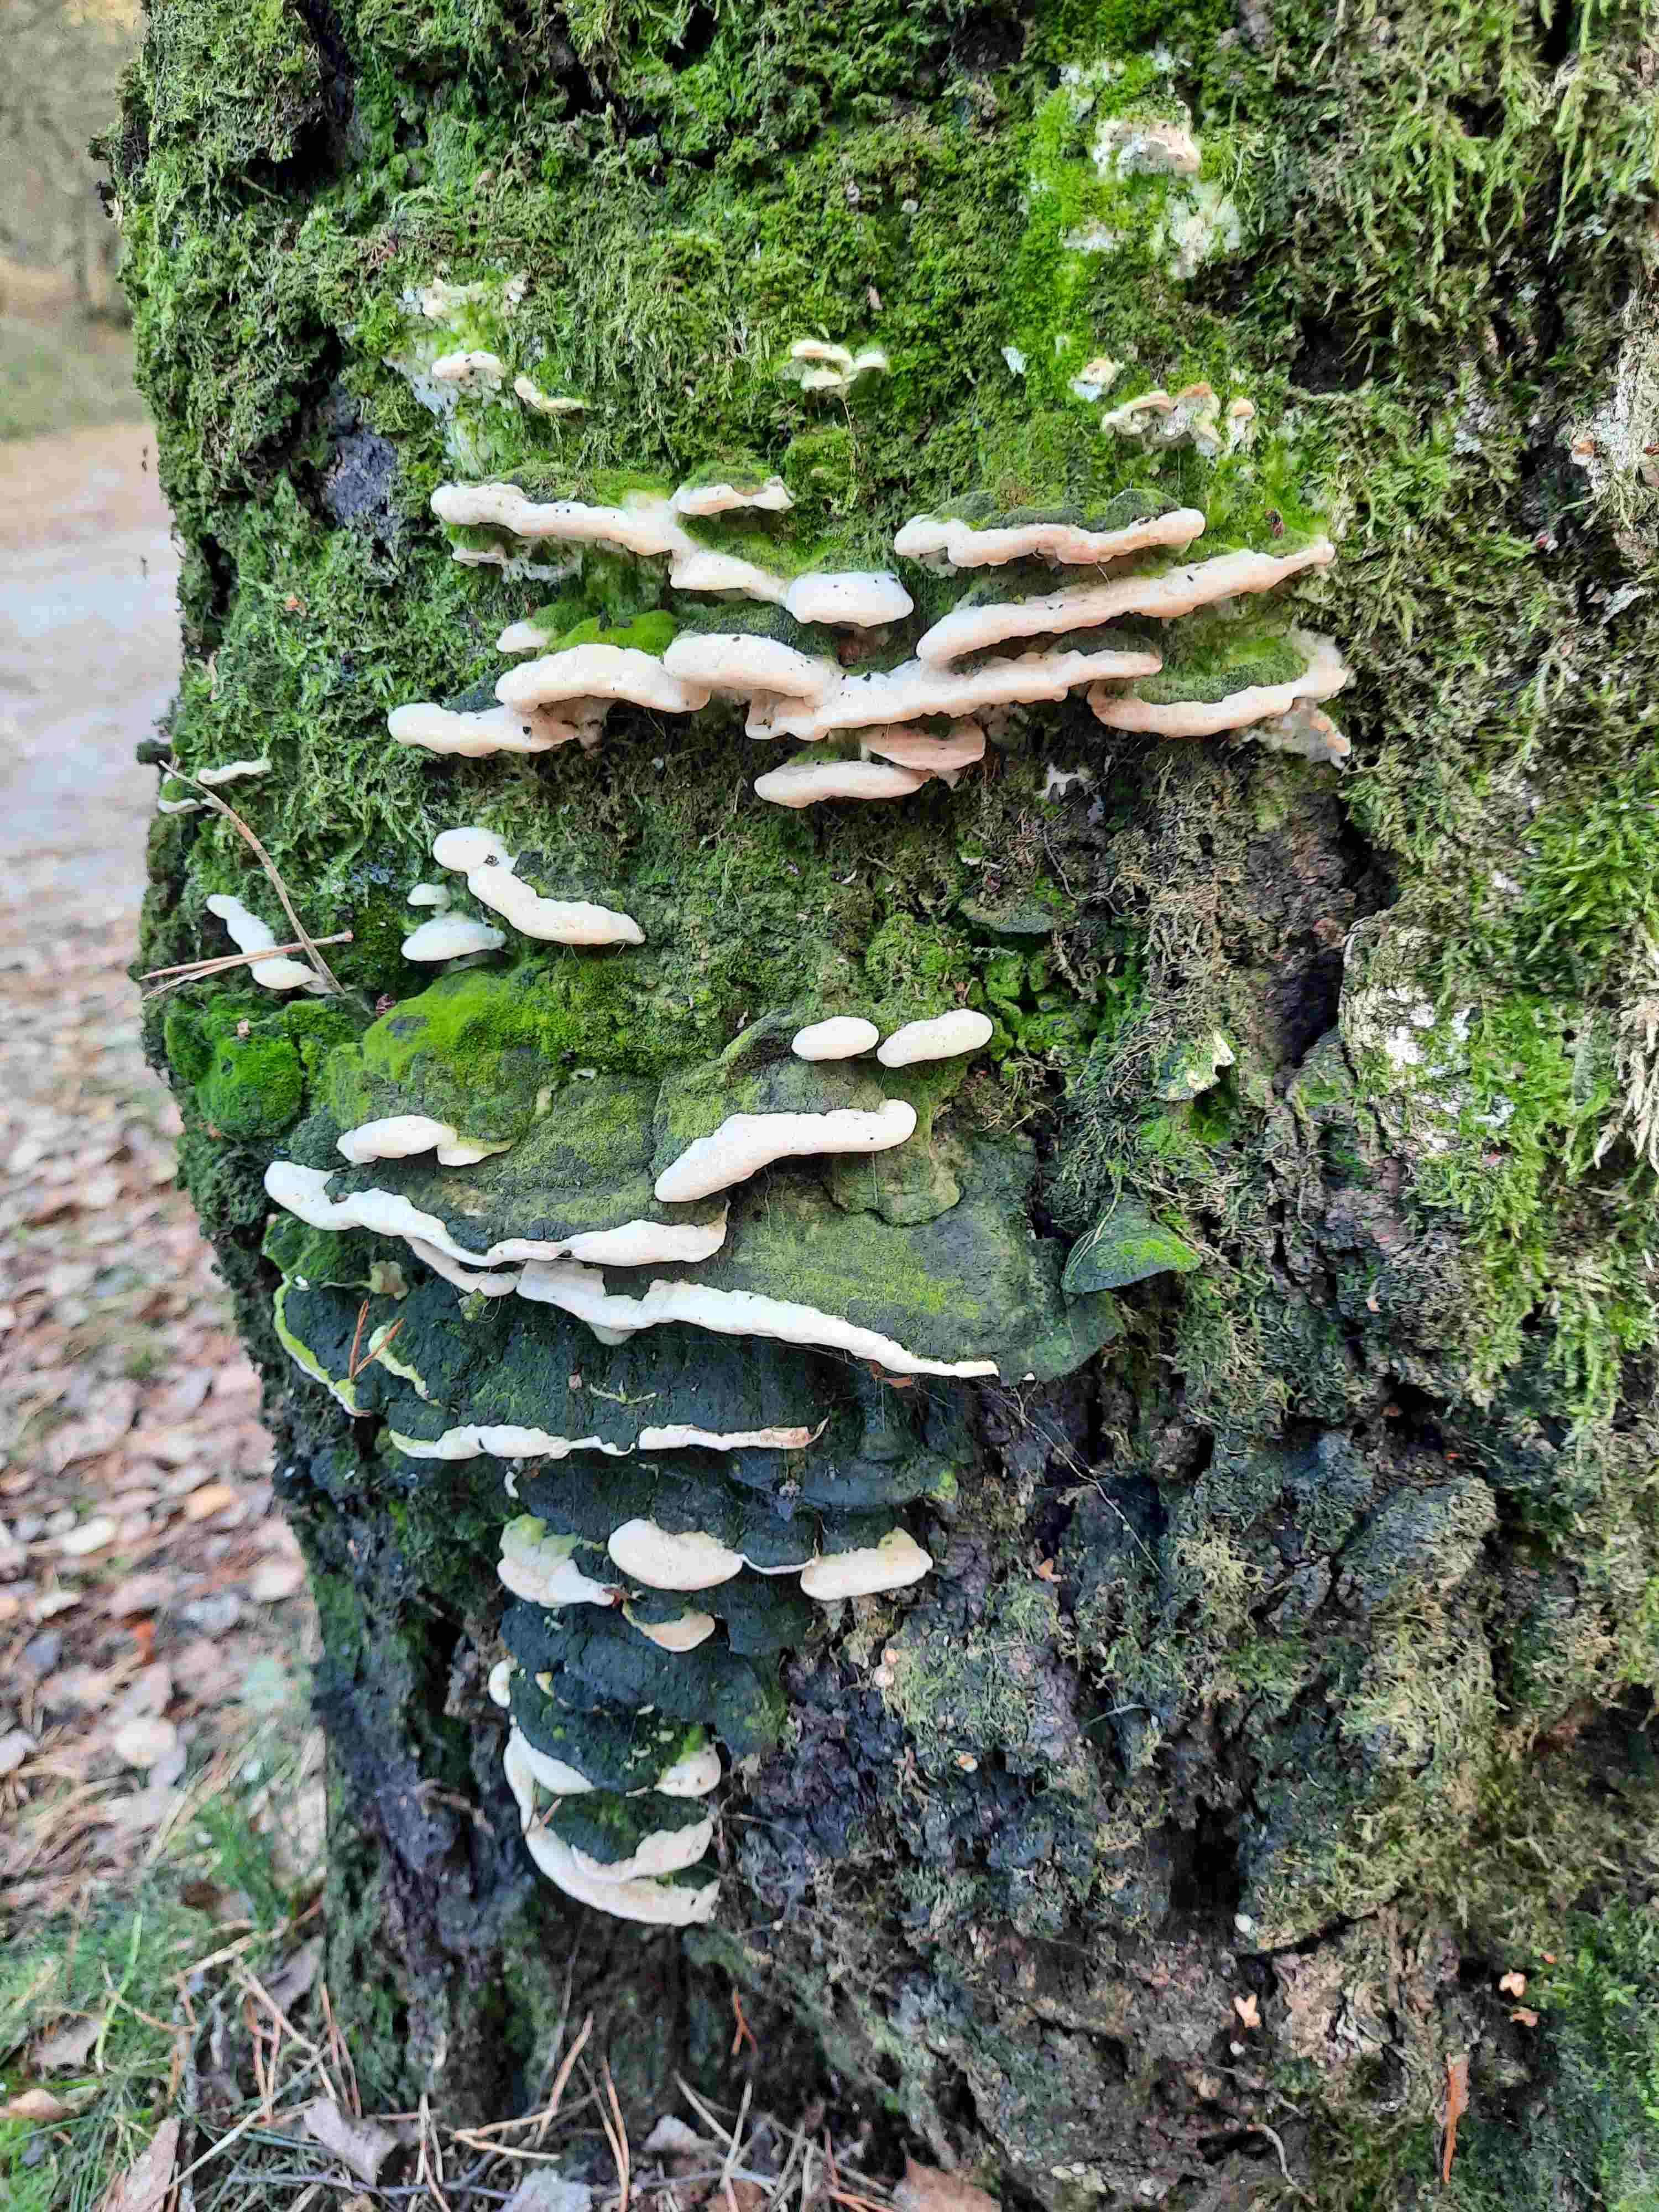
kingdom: Fungi
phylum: Basidiomycota
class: Agaricomycetes
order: Hymenochaetales
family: Oxyporaceae
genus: Oxyporus
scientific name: Oxyporus populinus
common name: sammenvokset trylleporesvamp
